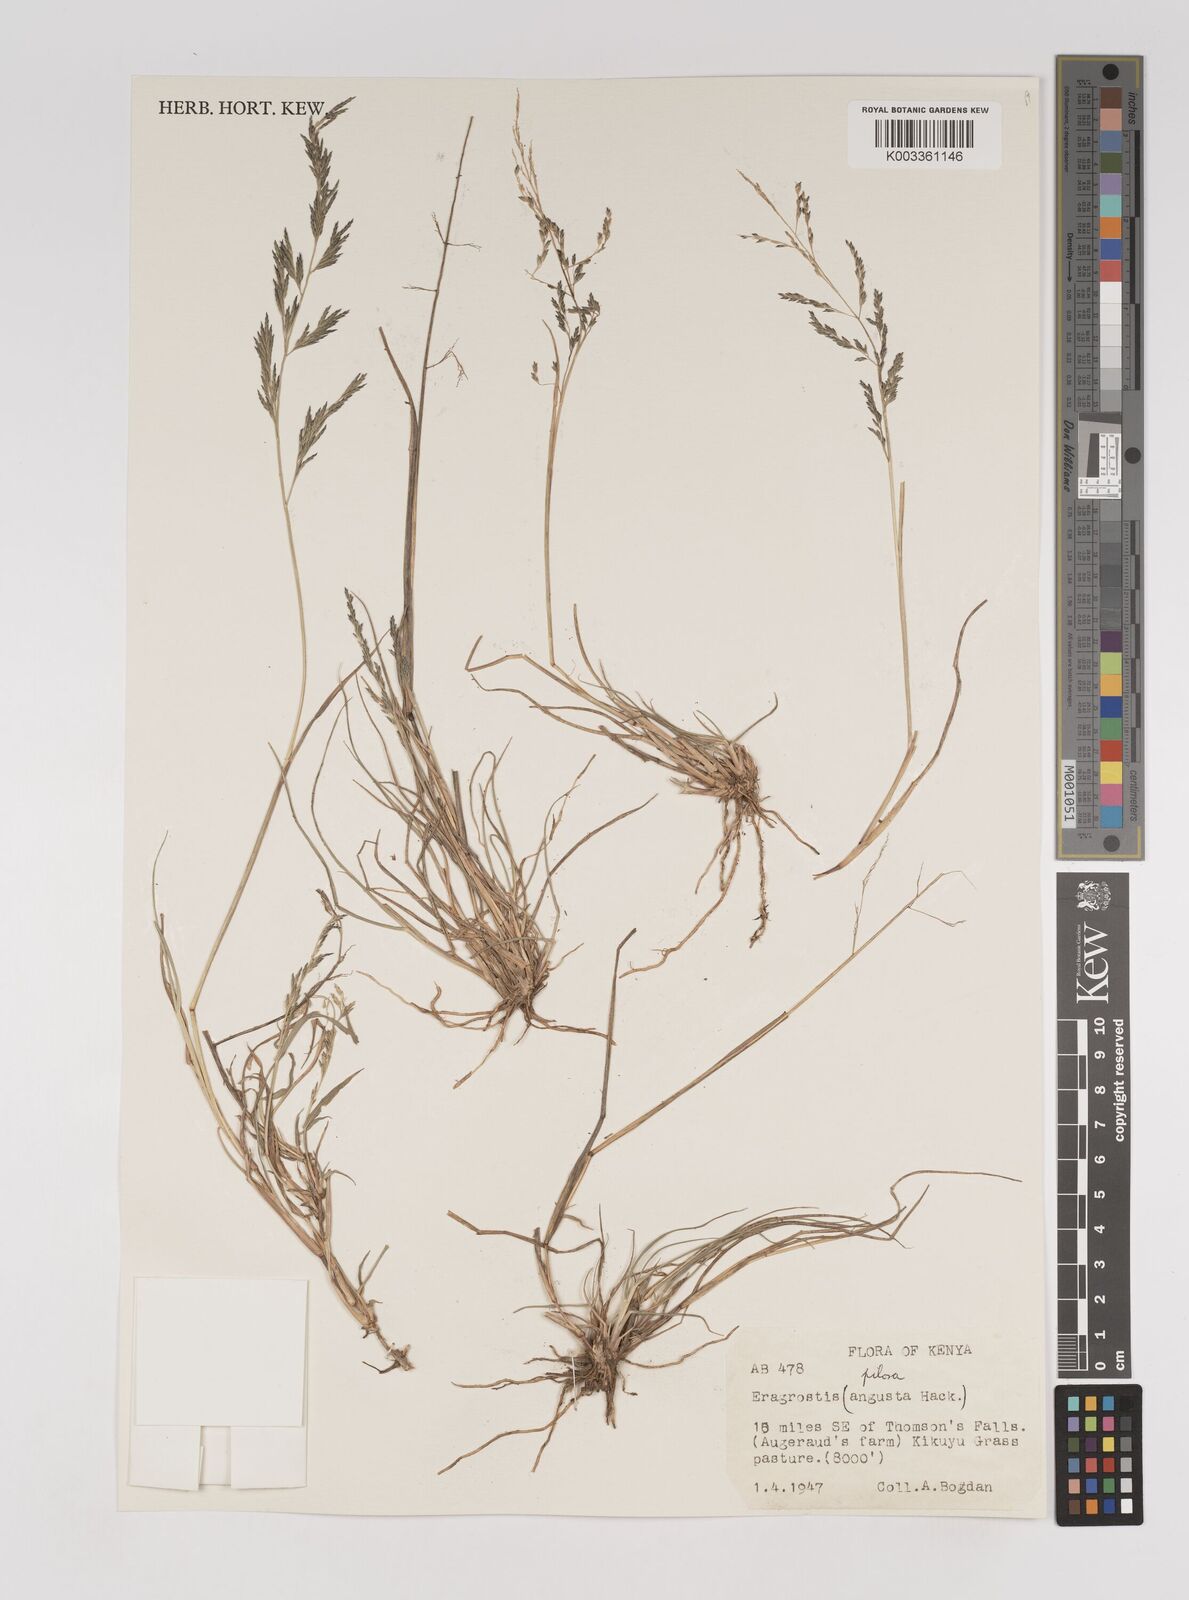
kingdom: Plantae
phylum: Tracheophyta
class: Liliopsida
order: Poales
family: Poaceae
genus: Eragrostis
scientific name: Eragrostis pilosa
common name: Indian lovegrass
